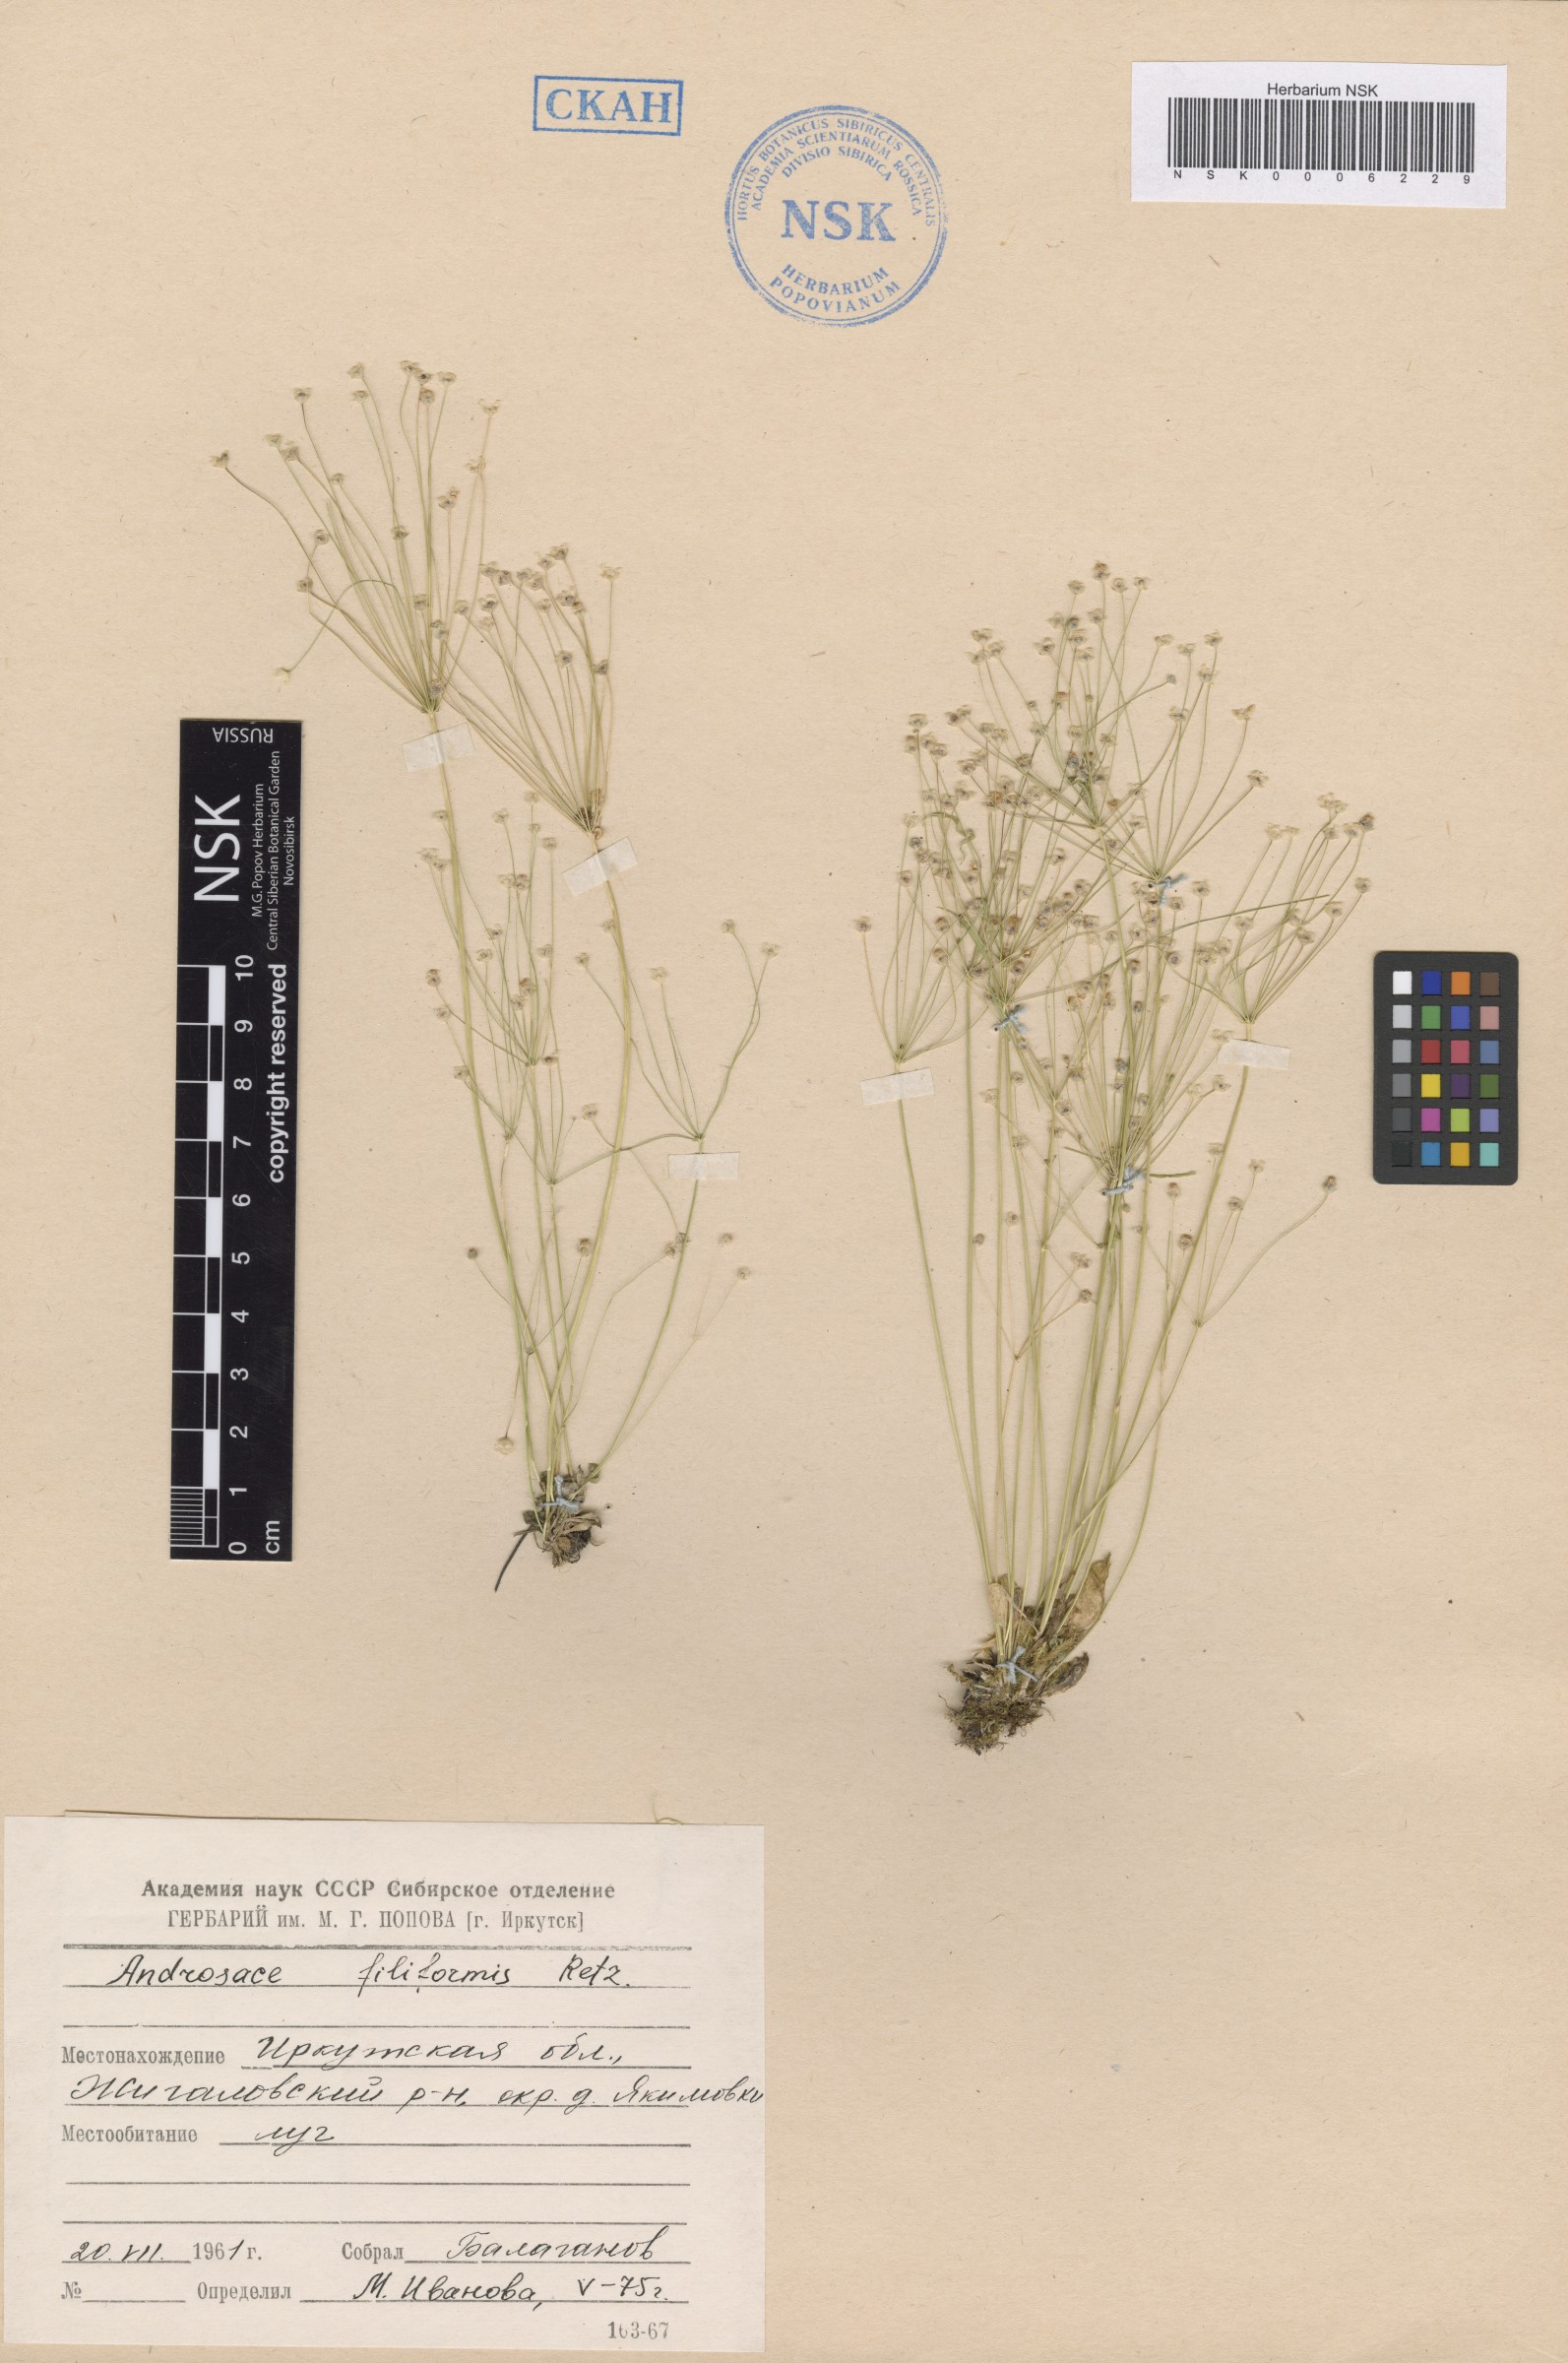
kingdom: Plantae
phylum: Tracheophyta
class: Magnoliopsida
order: Ericales
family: Primulaceae
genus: Androsace
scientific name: Androsace filiformis
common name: Filiform rock jasmine
